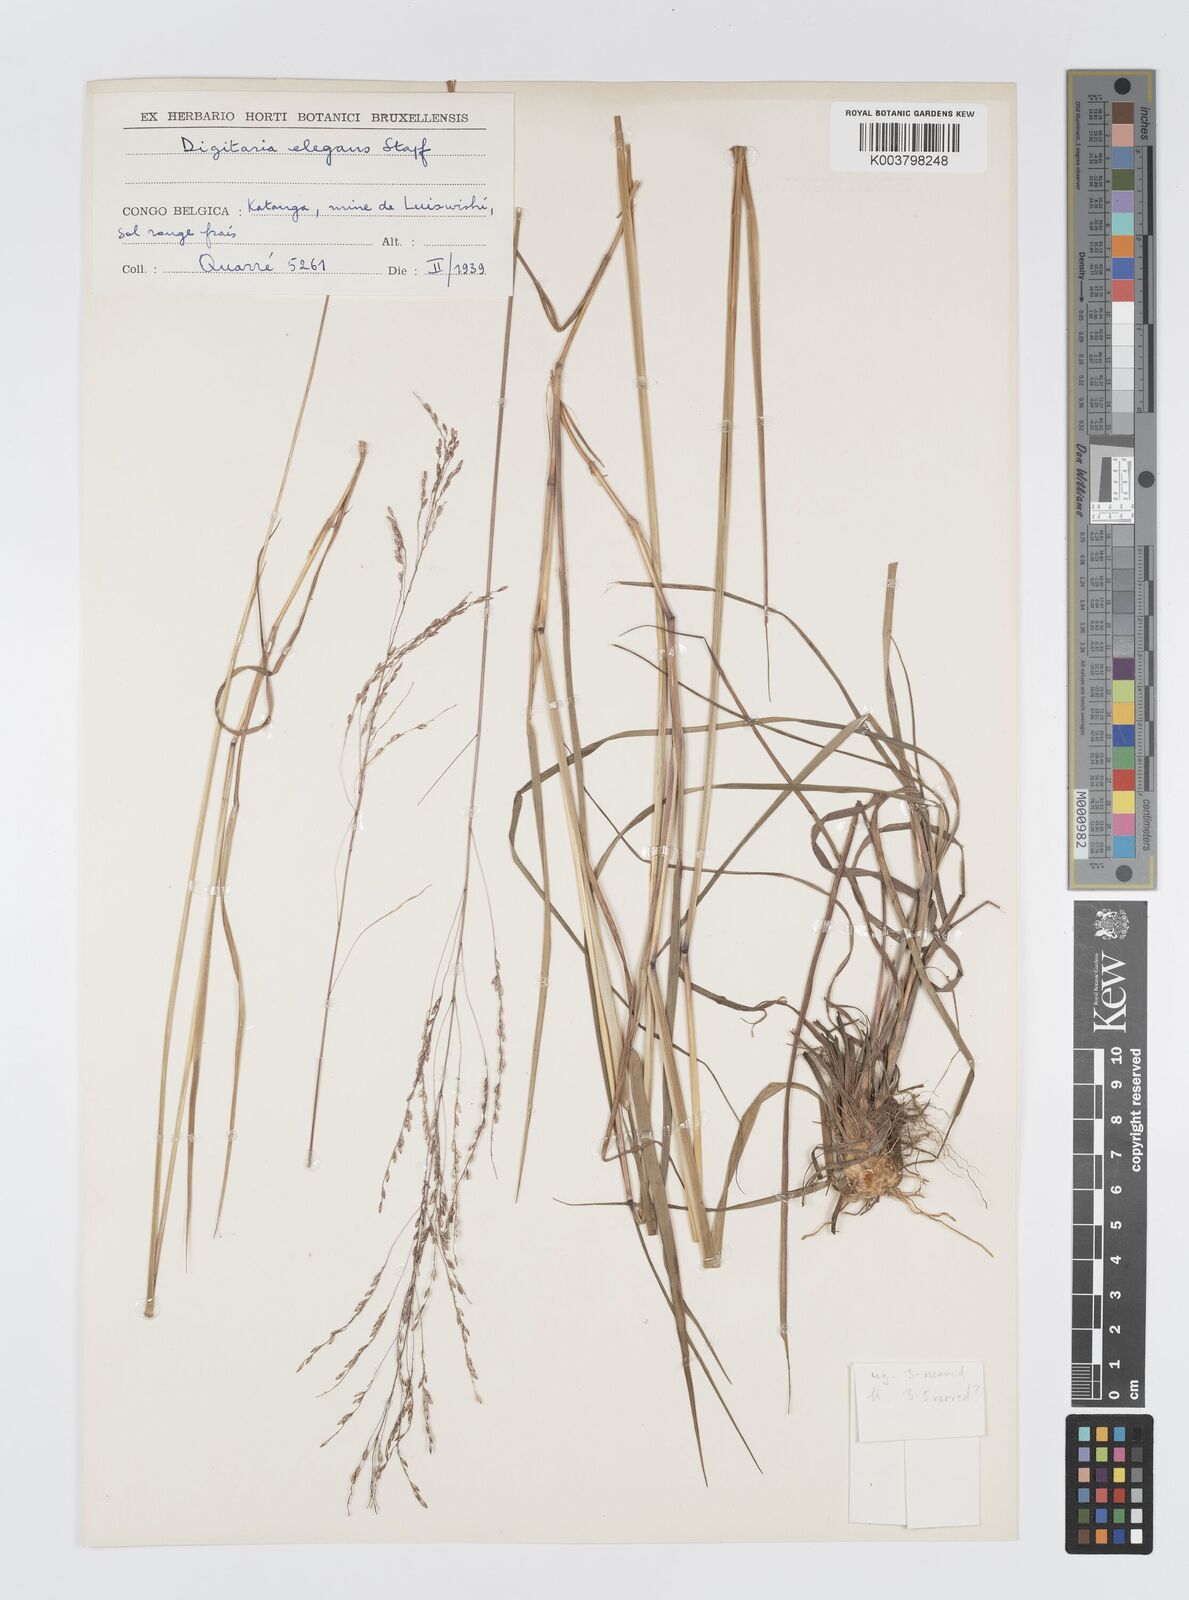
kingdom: Plantae
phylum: Tracheophyta
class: Liliopsida
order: Poales
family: Poaceae
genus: Digitaria
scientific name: Digitaria flaccida
